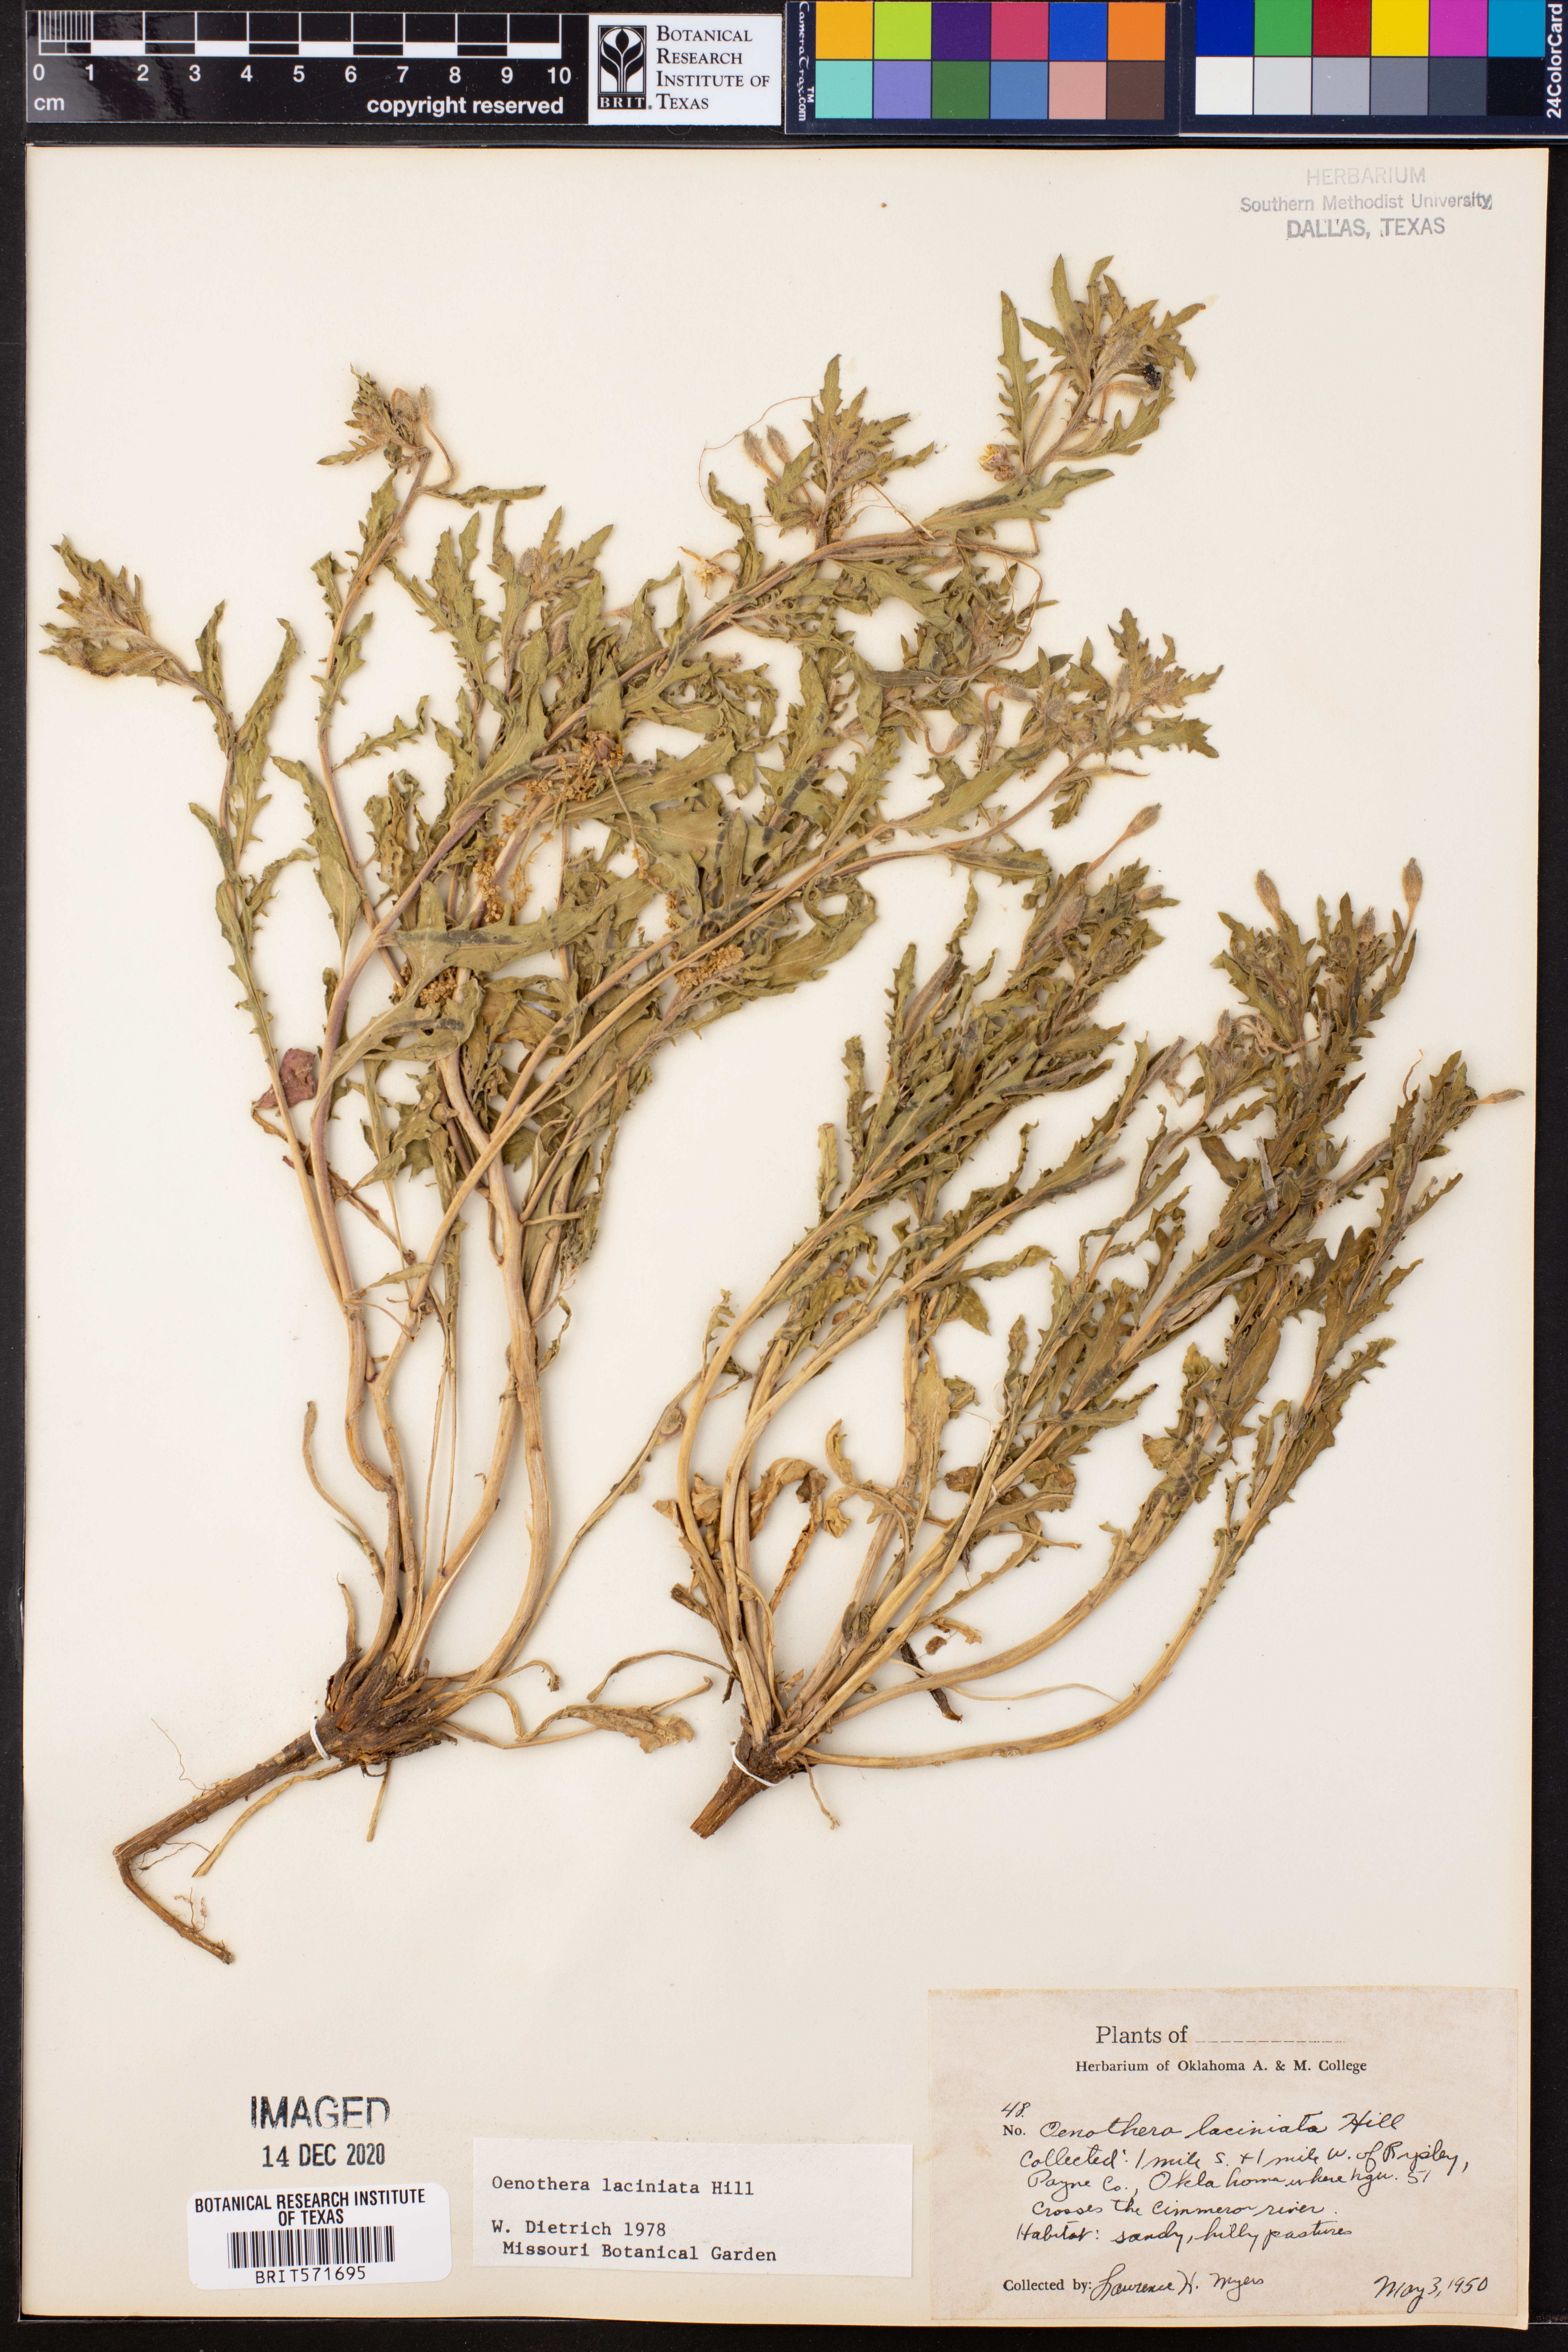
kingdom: Plantae
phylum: Tracheophyta
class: Magnoliopsida
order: Myrtales
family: Onagraceae
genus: Oenothera
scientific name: Oenothera laciniata
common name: Cut-leaved evening-primrose
